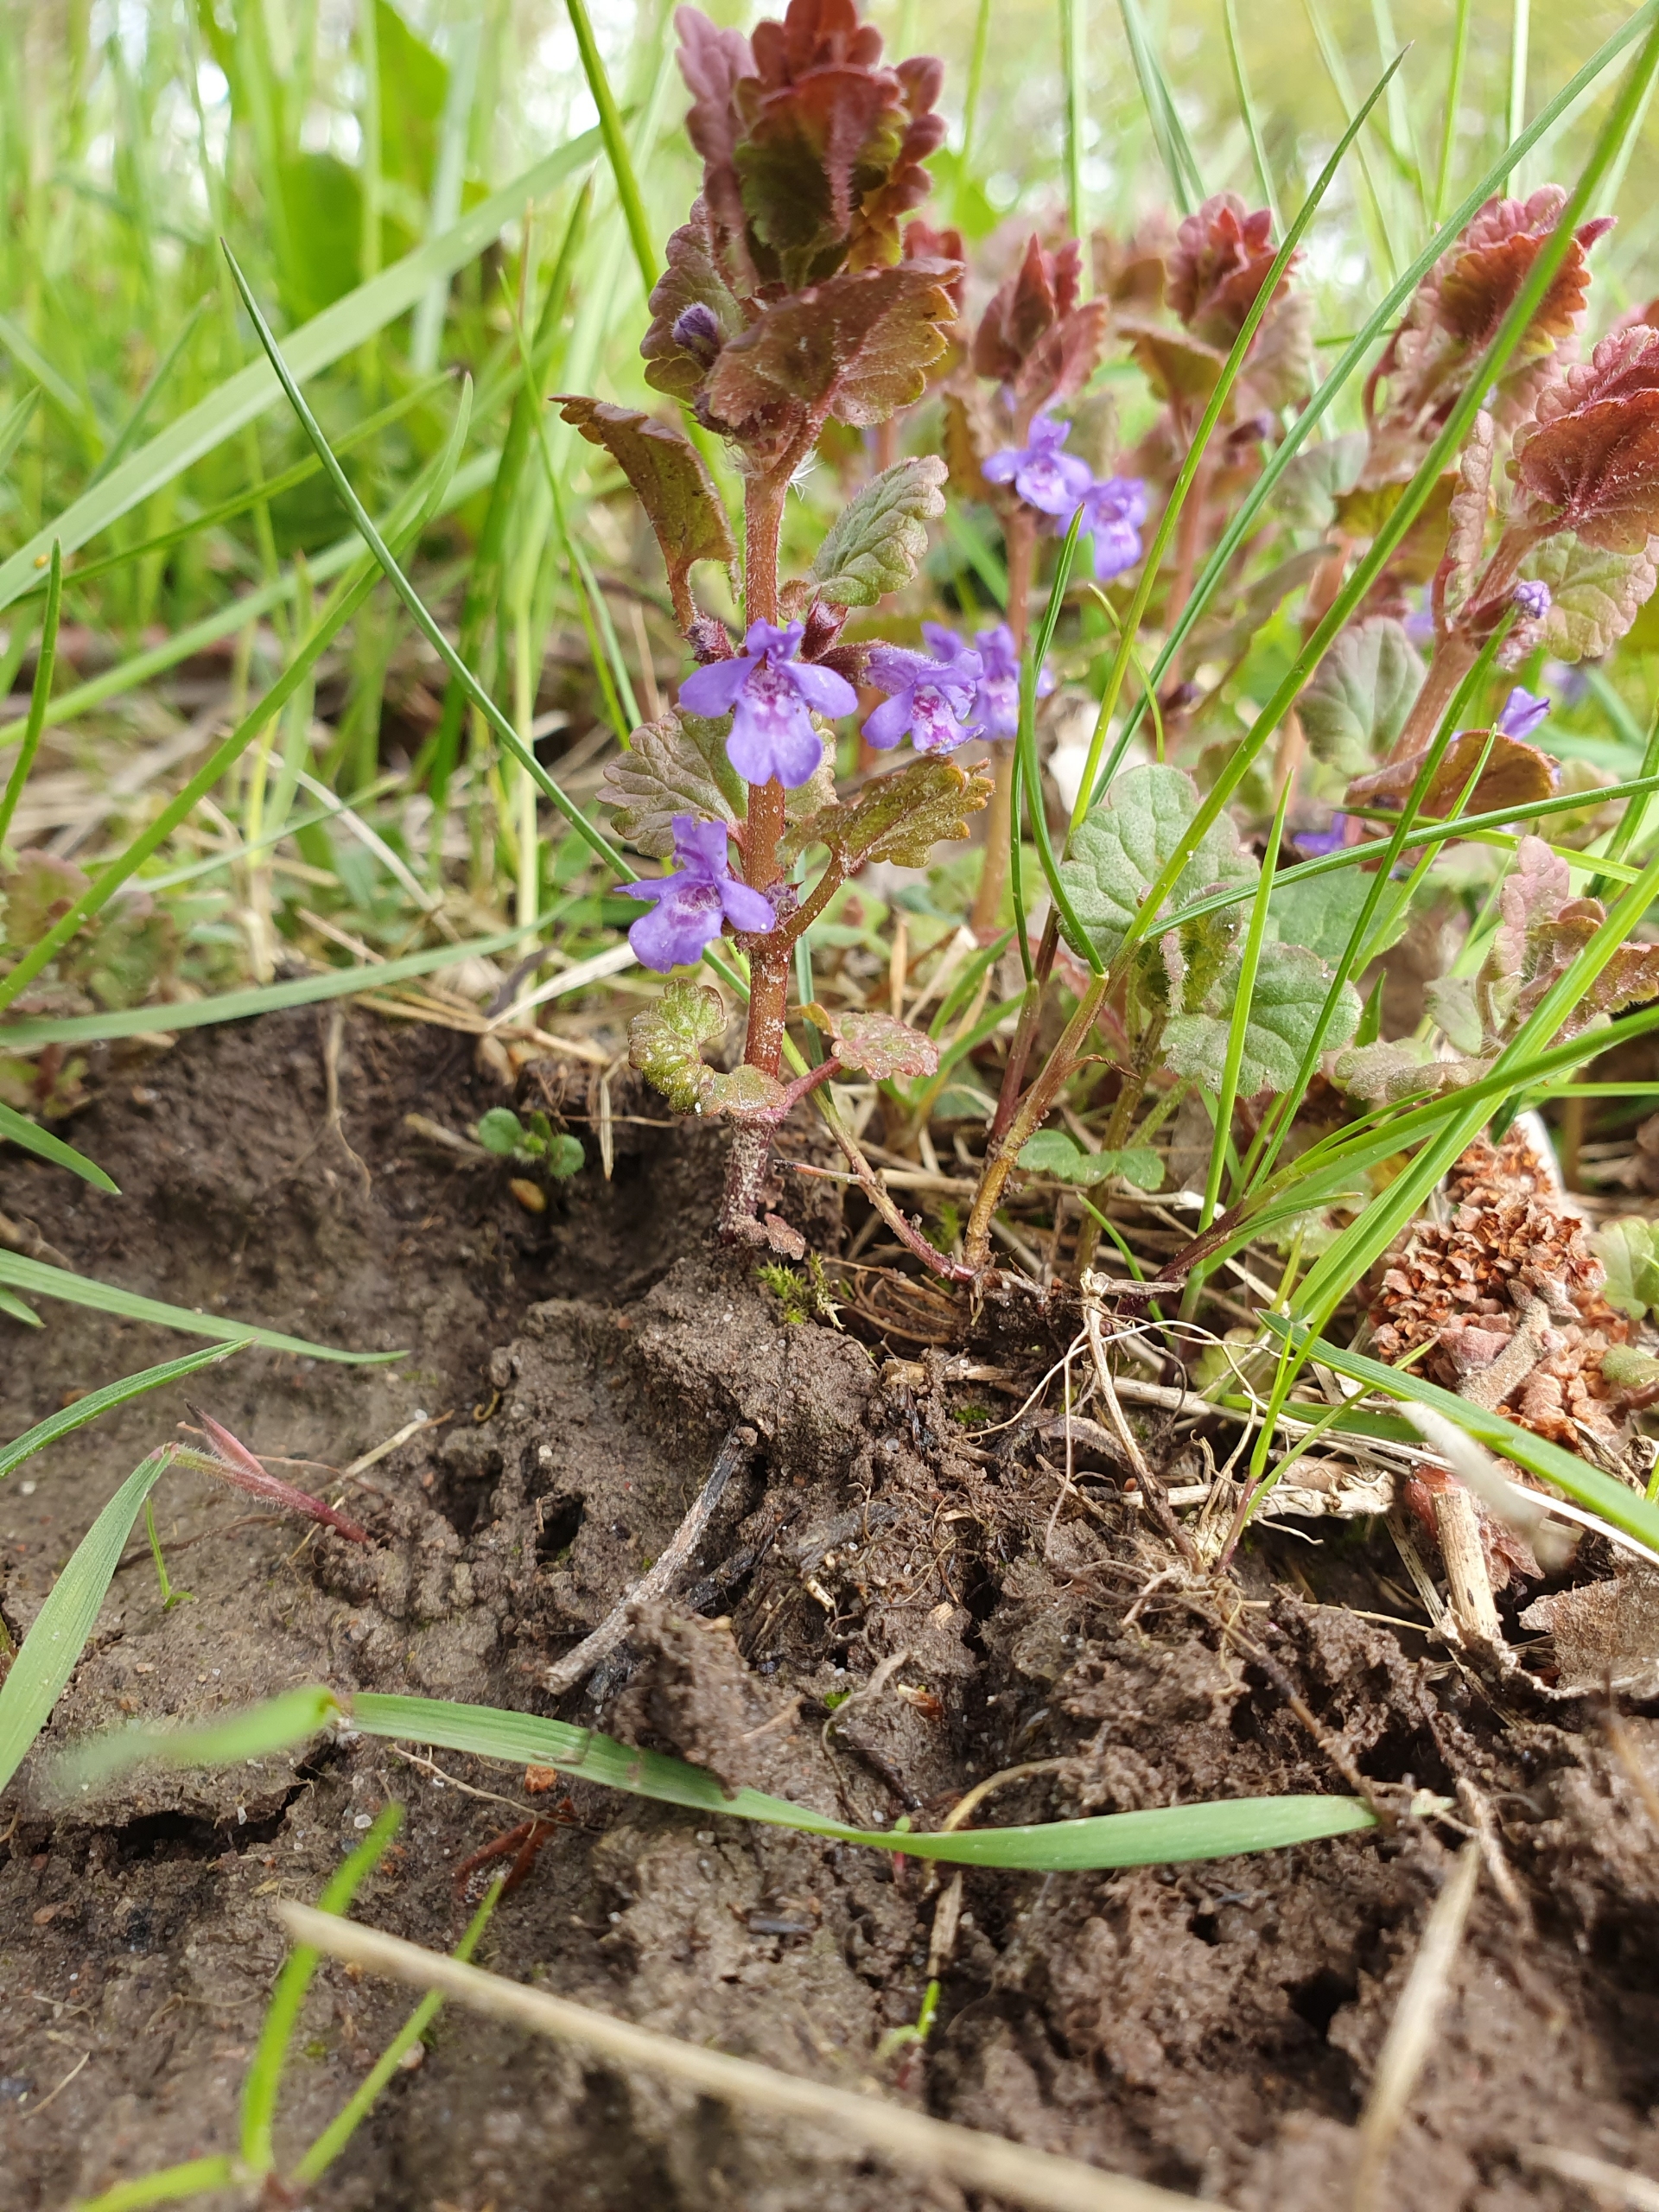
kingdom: Plantae
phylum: Tracheophyta
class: Magnoliopsida
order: Lamiales
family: Lamiaceae
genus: Glechoma
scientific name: Glechoma hederacea
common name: Korsknap
